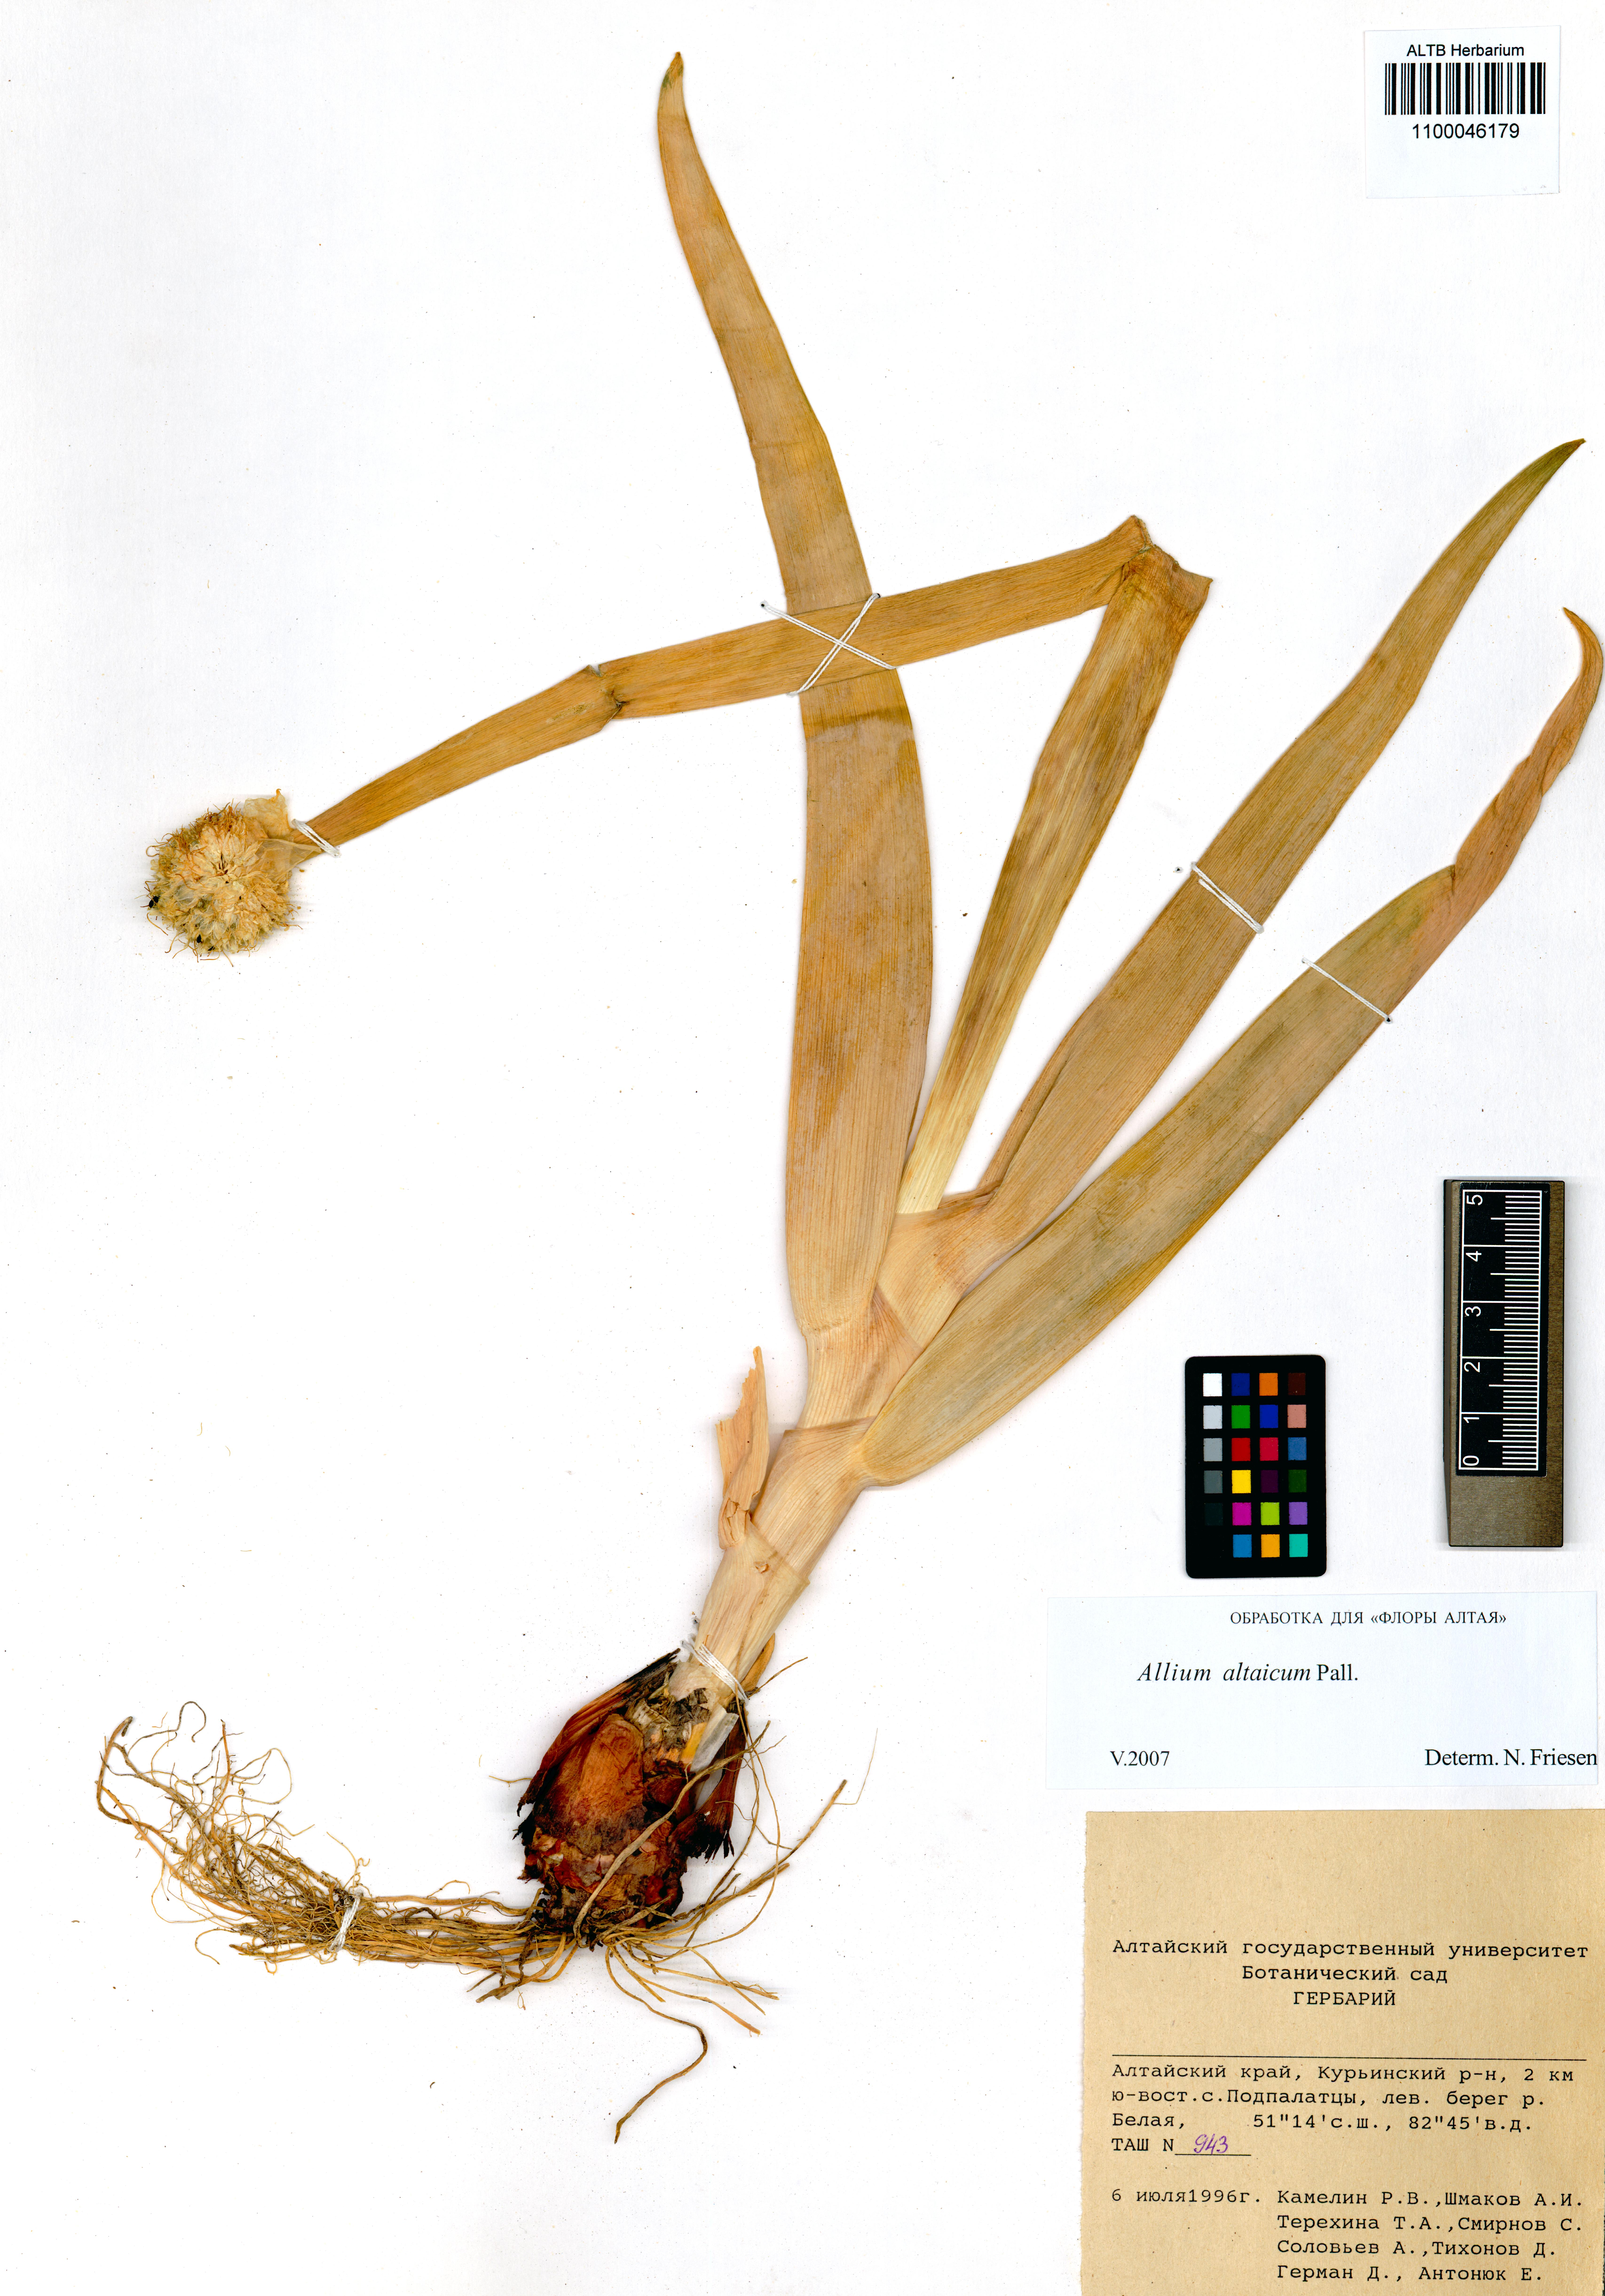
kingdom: Plantae
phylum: Tracheophyta
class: Liliopsida
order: Asparagales
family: Amaryllidaceae
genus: Allium
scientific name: Allium altaicum
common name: Altai onion
